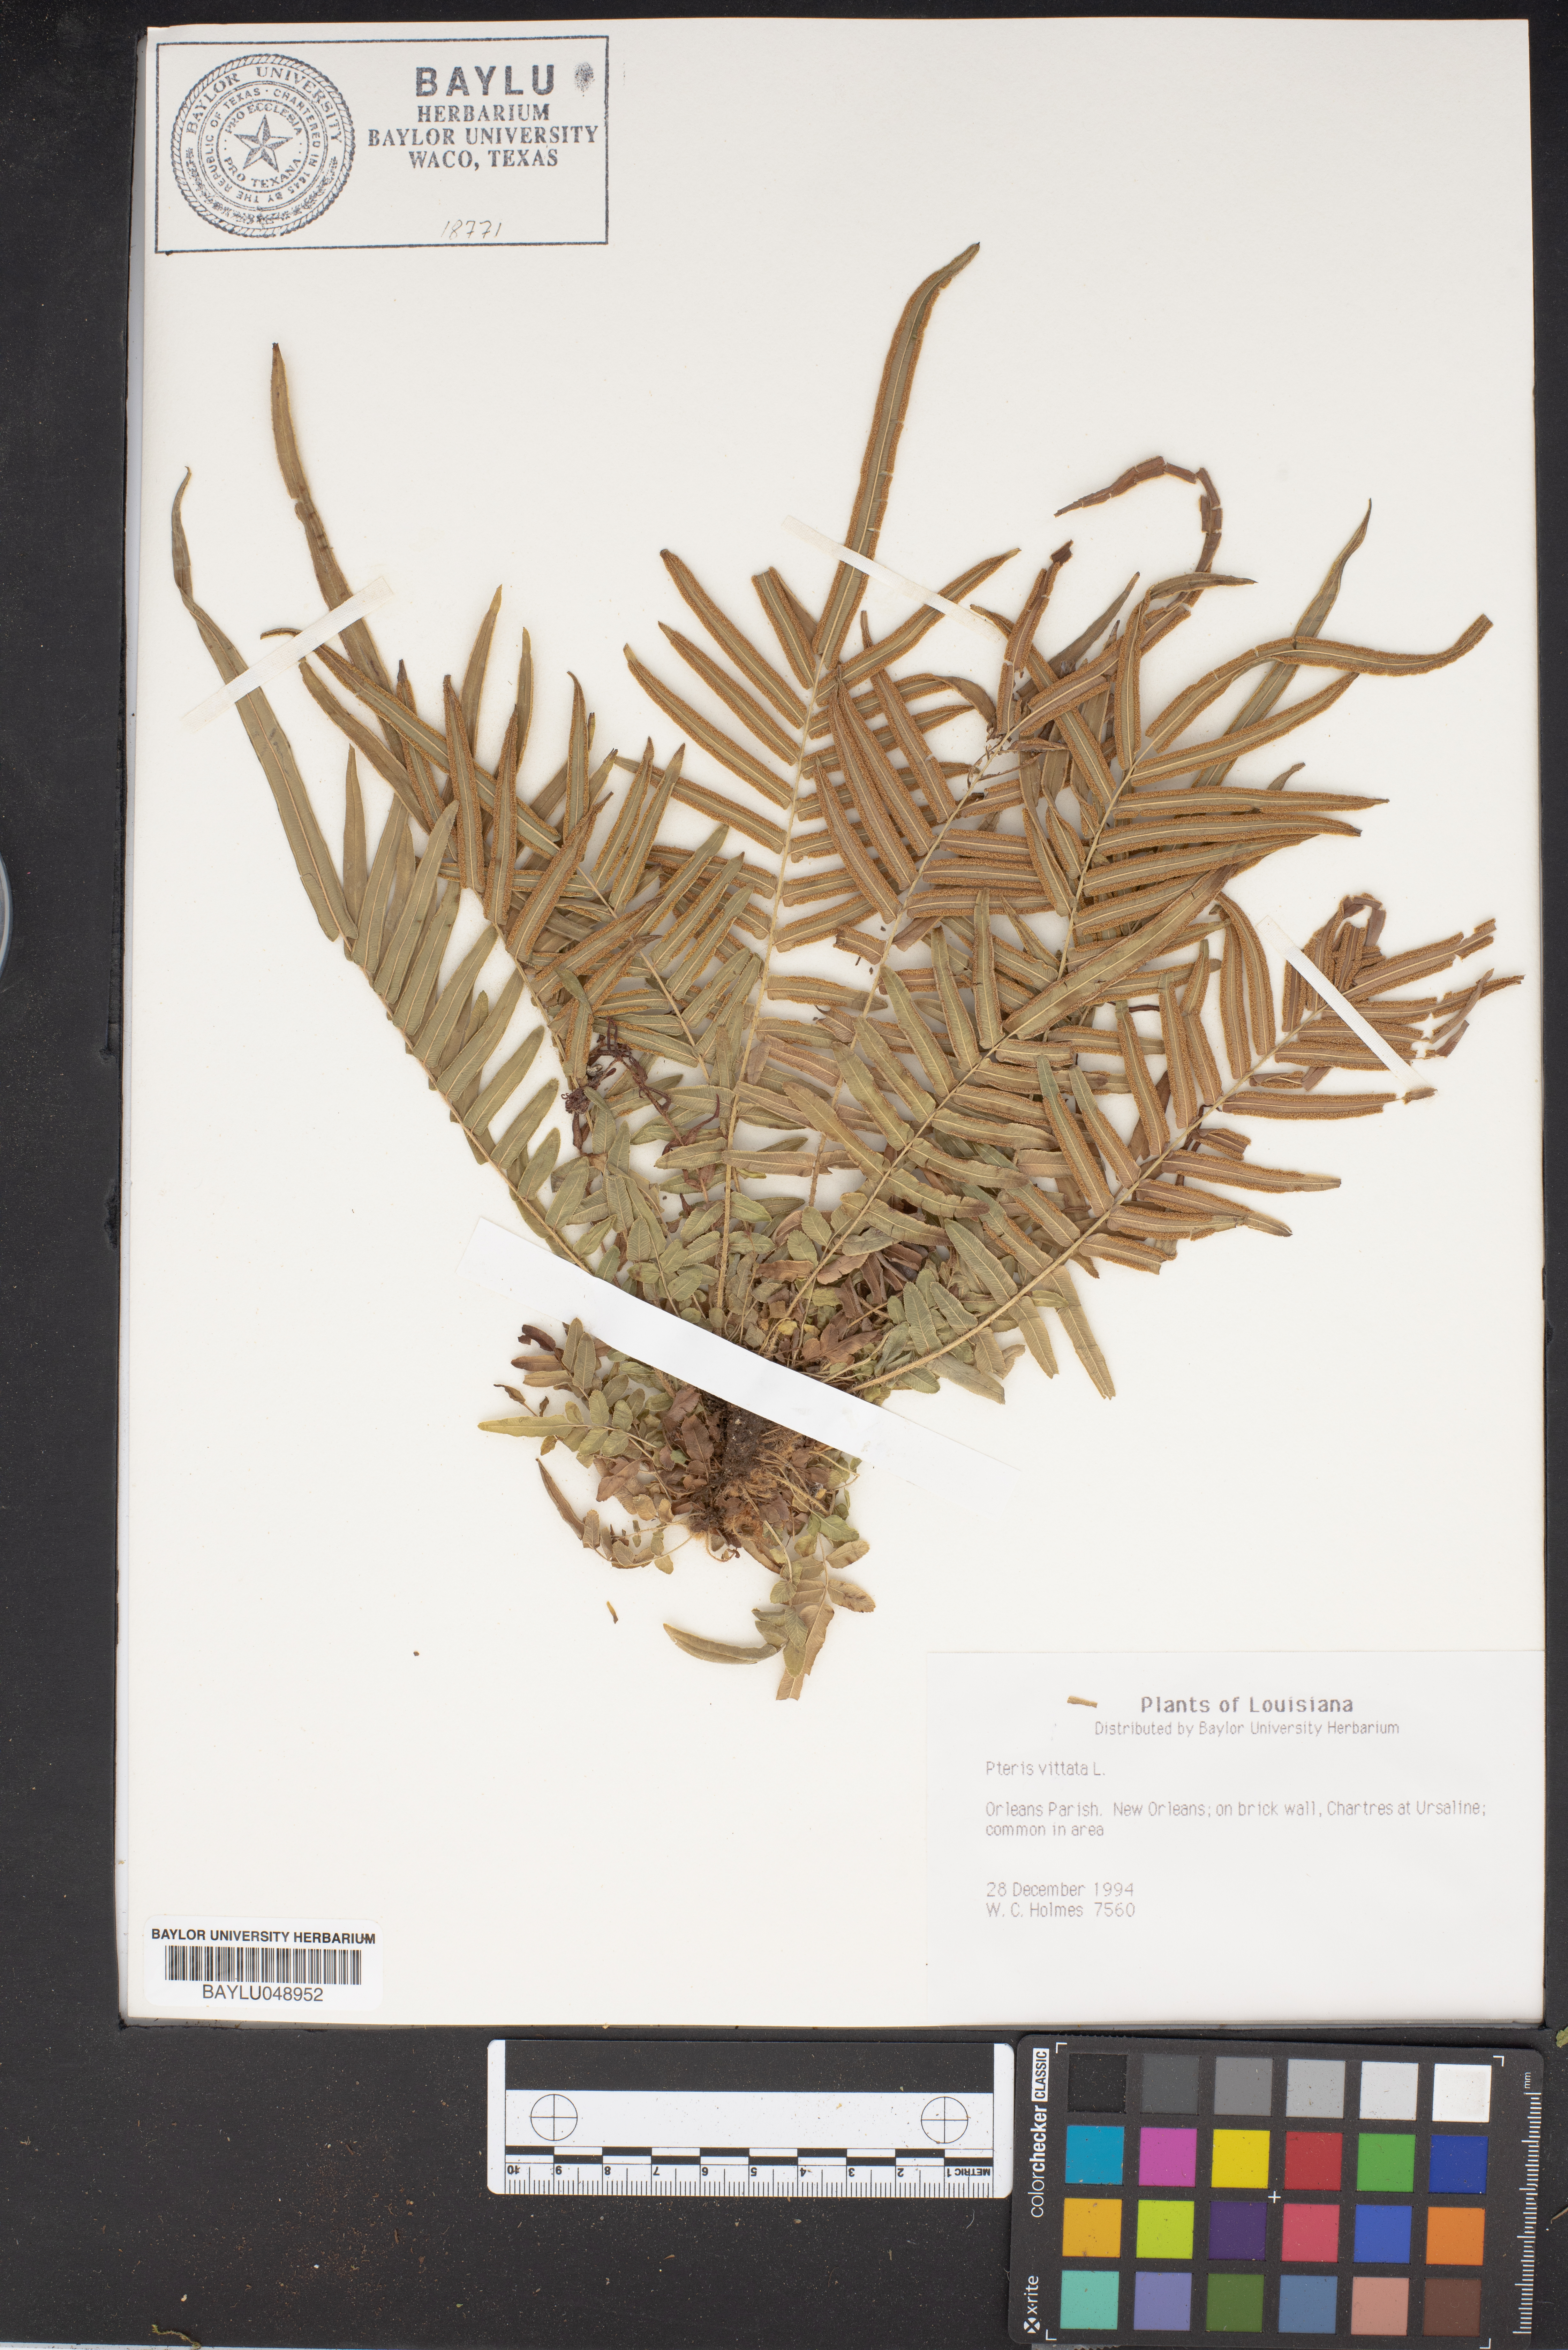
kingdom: Plantae
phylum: Tracheophyta
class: Polypodiopsida
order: Polypodiales
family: Pteridaceae
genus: Pteris
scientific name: Pteris vittata
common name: Ladder brake
